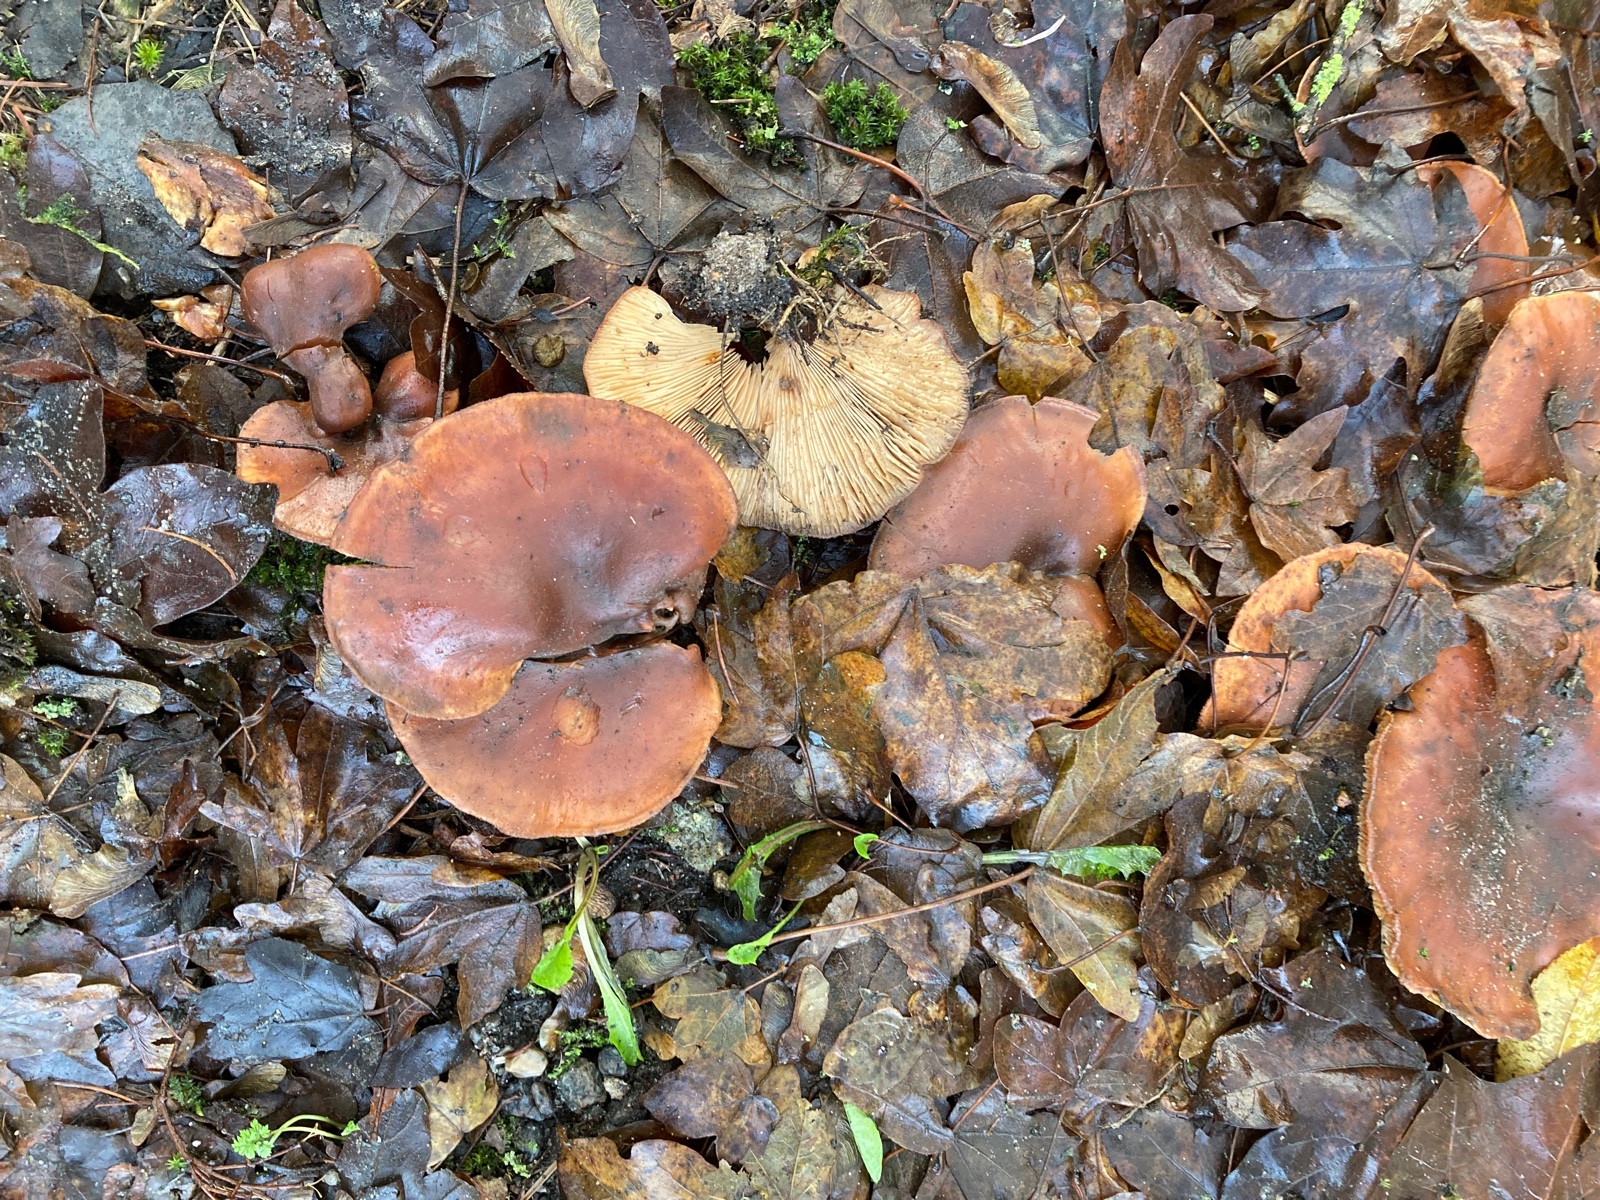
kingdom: Fungi
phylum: Basidiomycota
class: Agaricomycetes
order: Agaricales
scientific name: Agaricales
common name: champignonordenen
